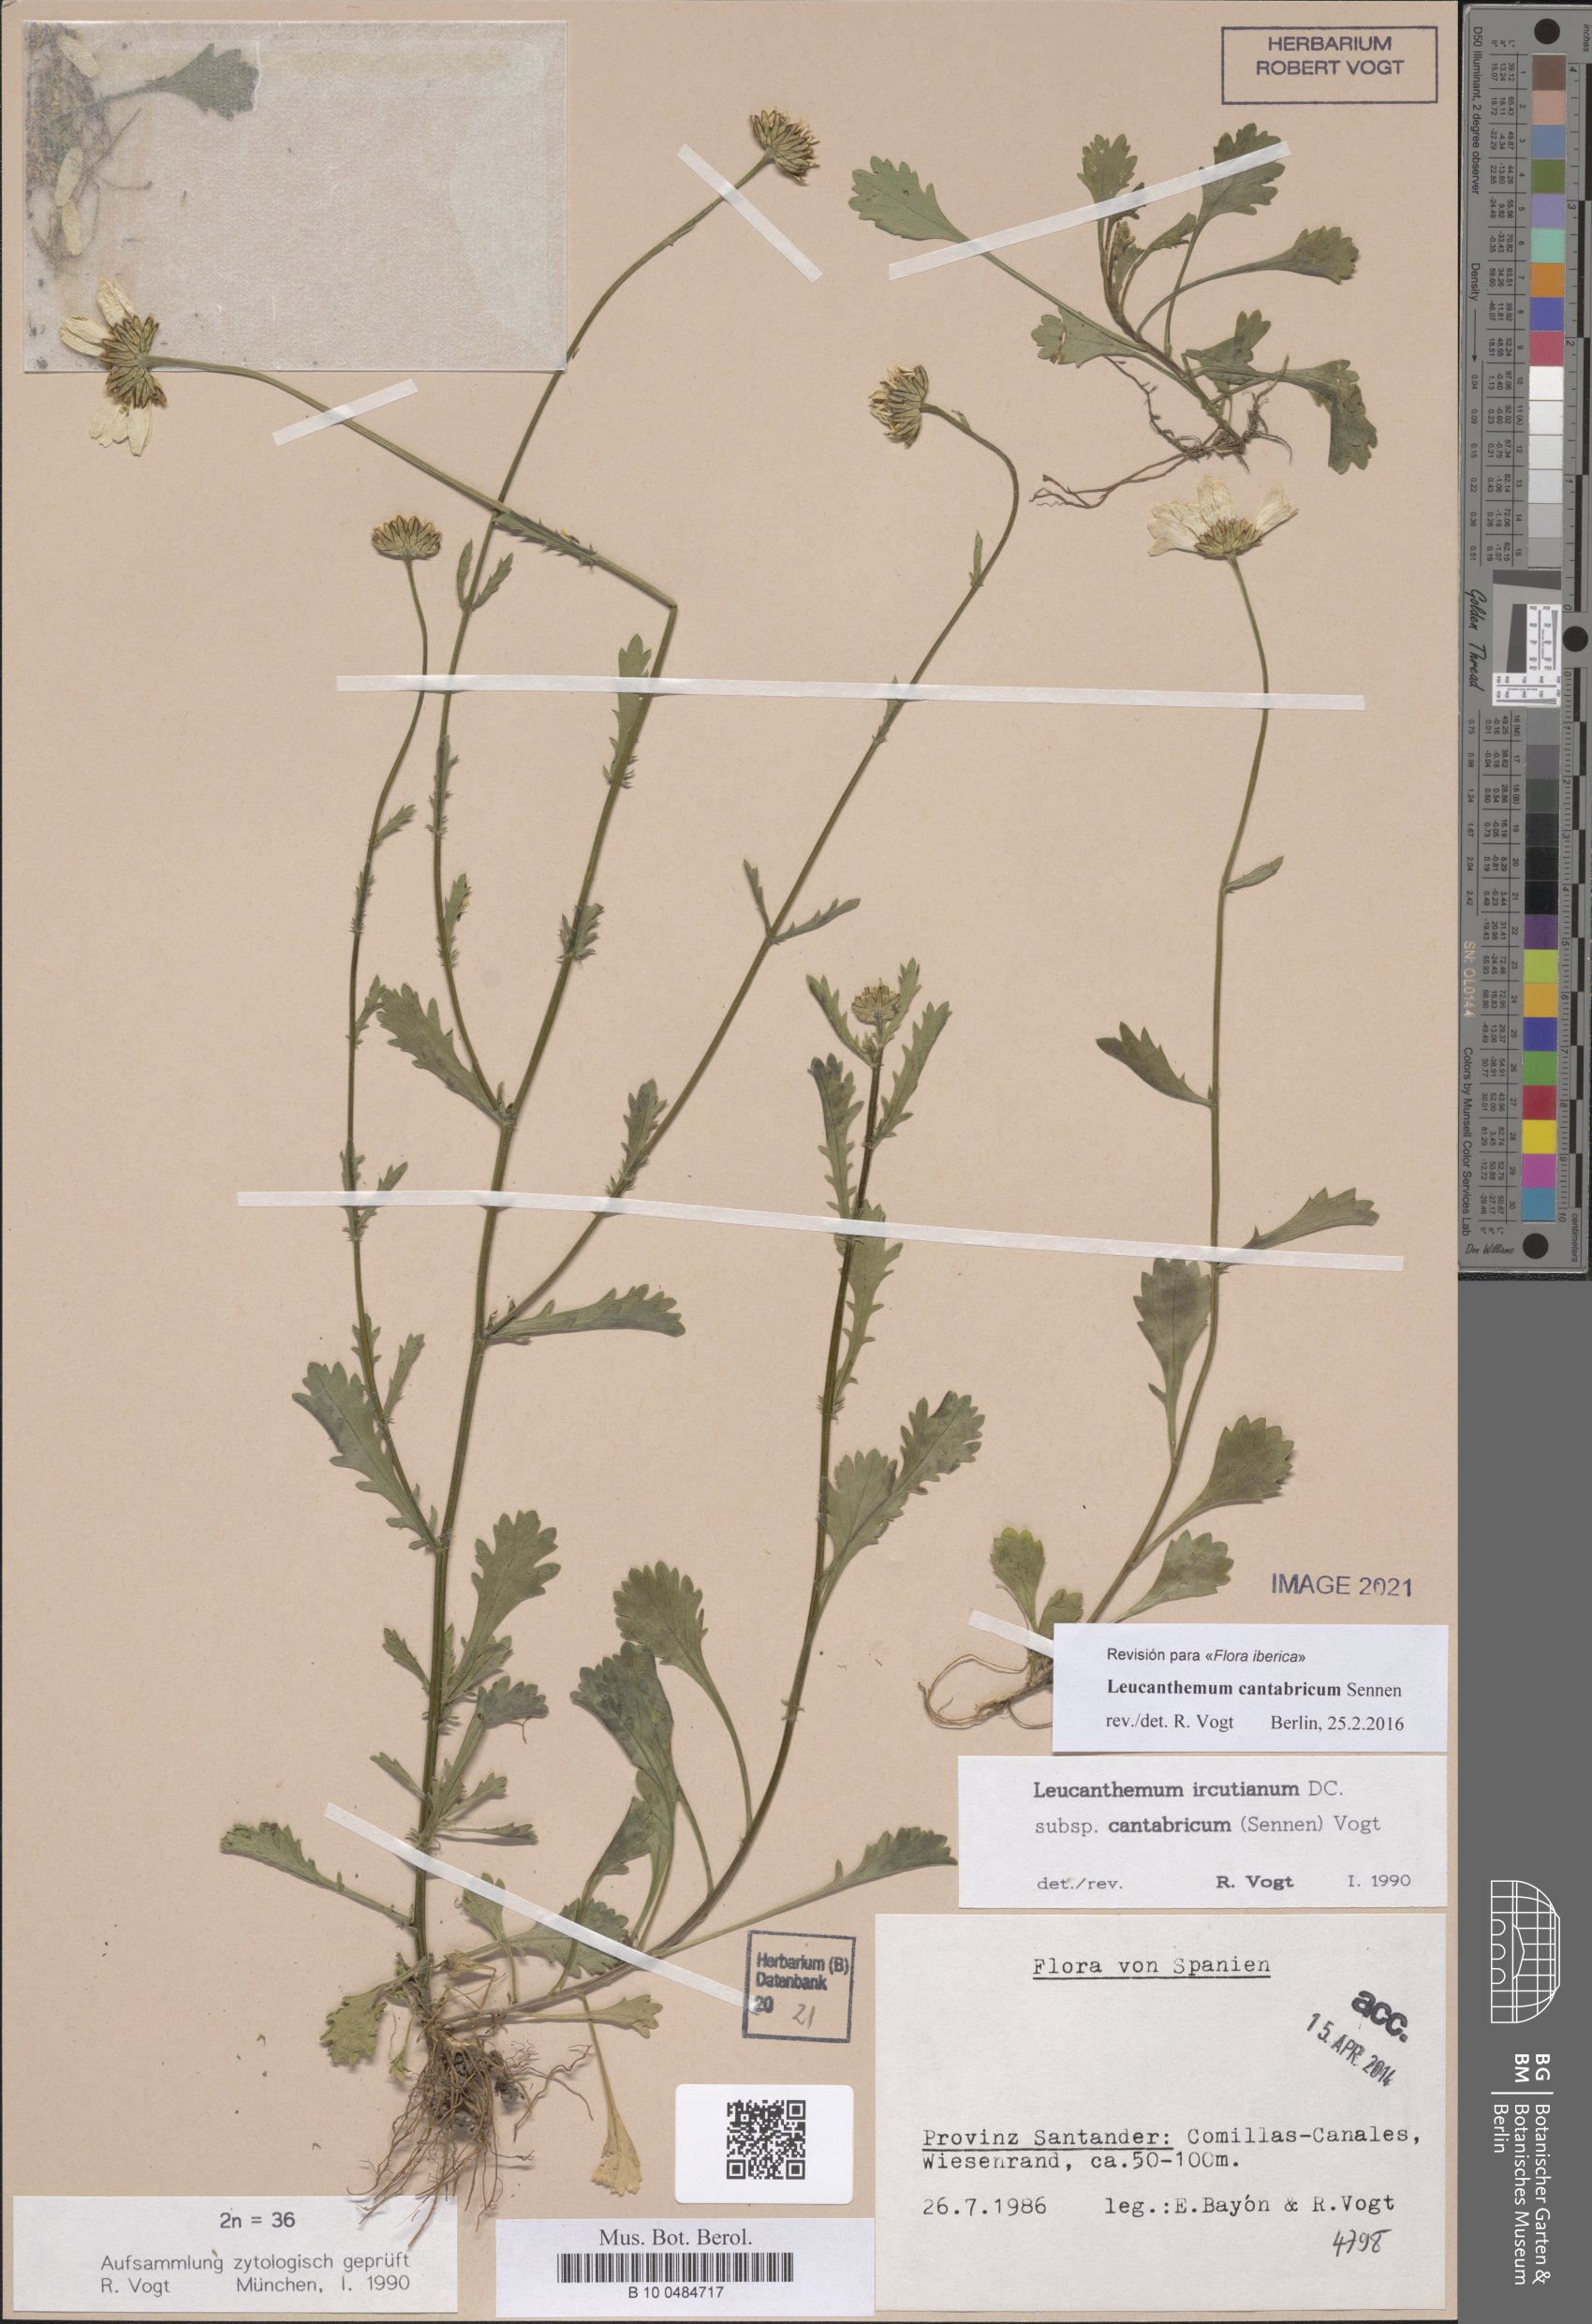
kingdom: Plantae
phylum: Tracheophyta
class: Magnoliopsida
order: Asterales
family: Asteraceae
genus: Leucanthemum
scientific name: Leucanthemum cantabricum
